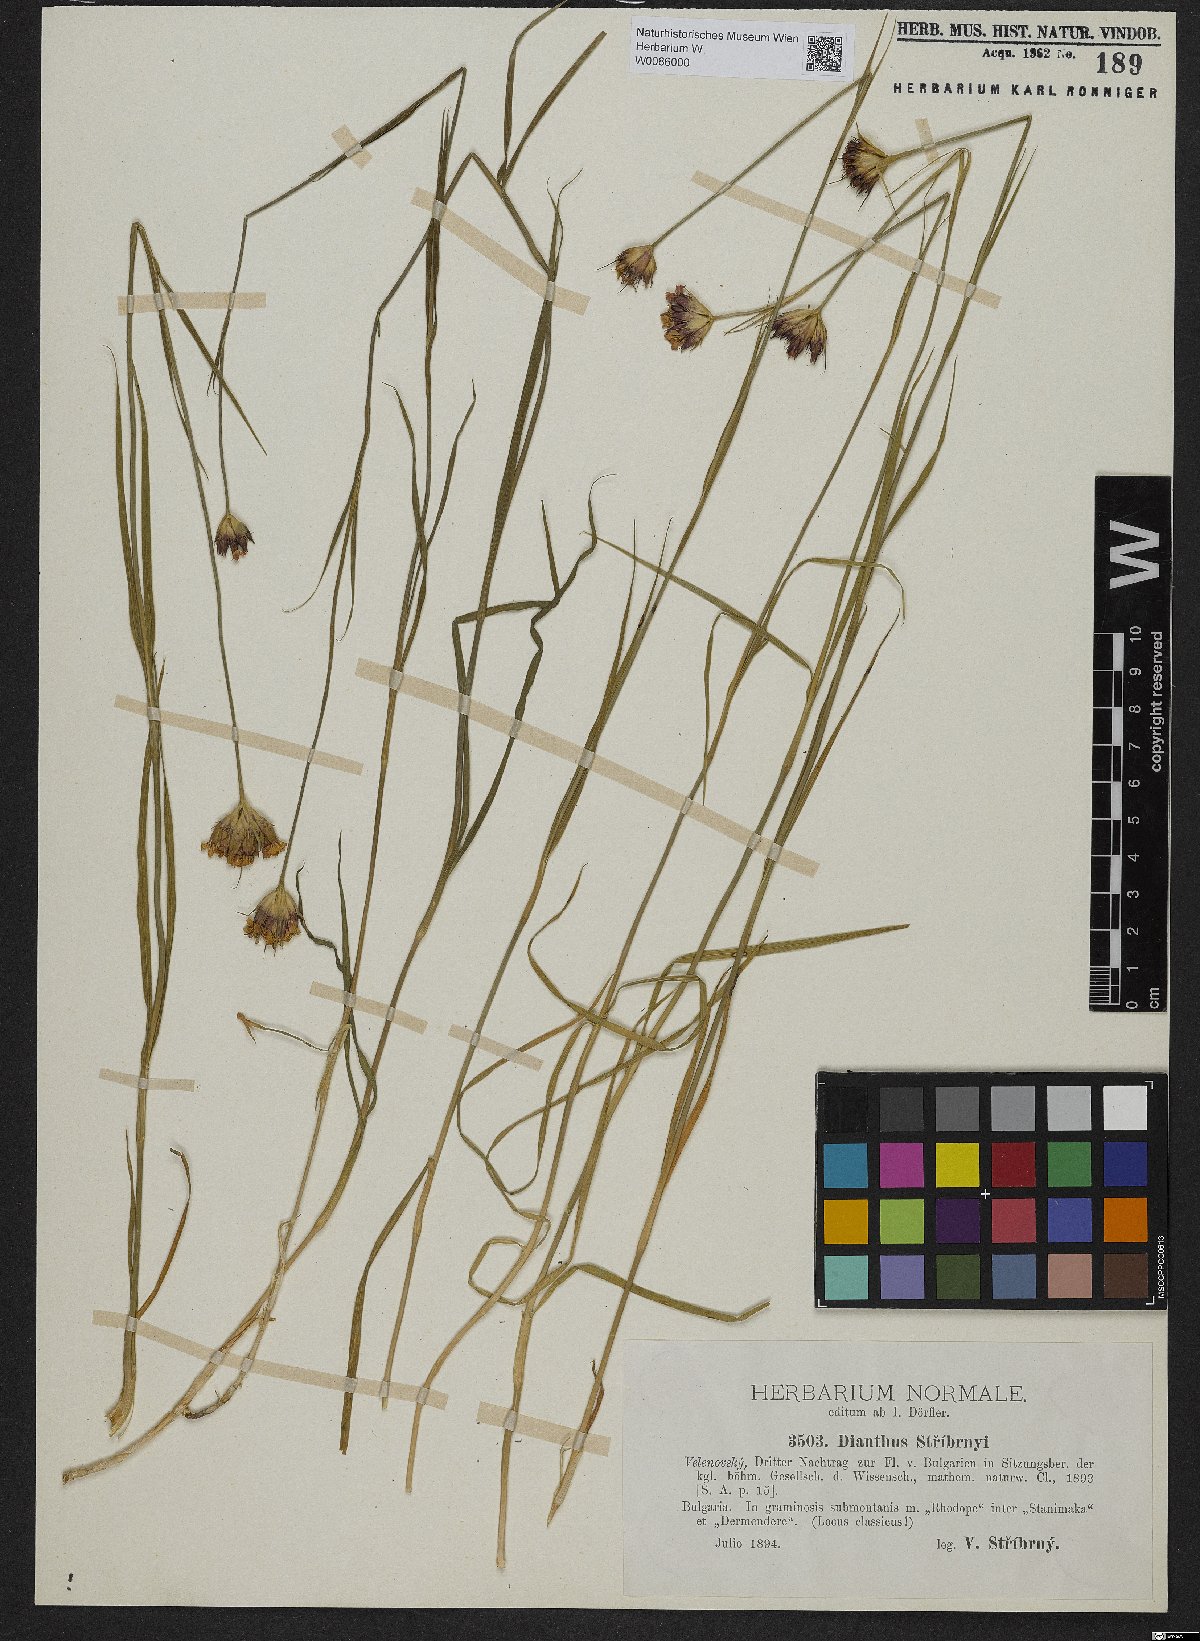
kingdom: Plantae
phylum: Tracheophyta
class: Magnoliopsida
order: Caryophyllales
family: Caryophyllaceae
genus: Dianthus
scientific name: Dianthus stribrnyi
